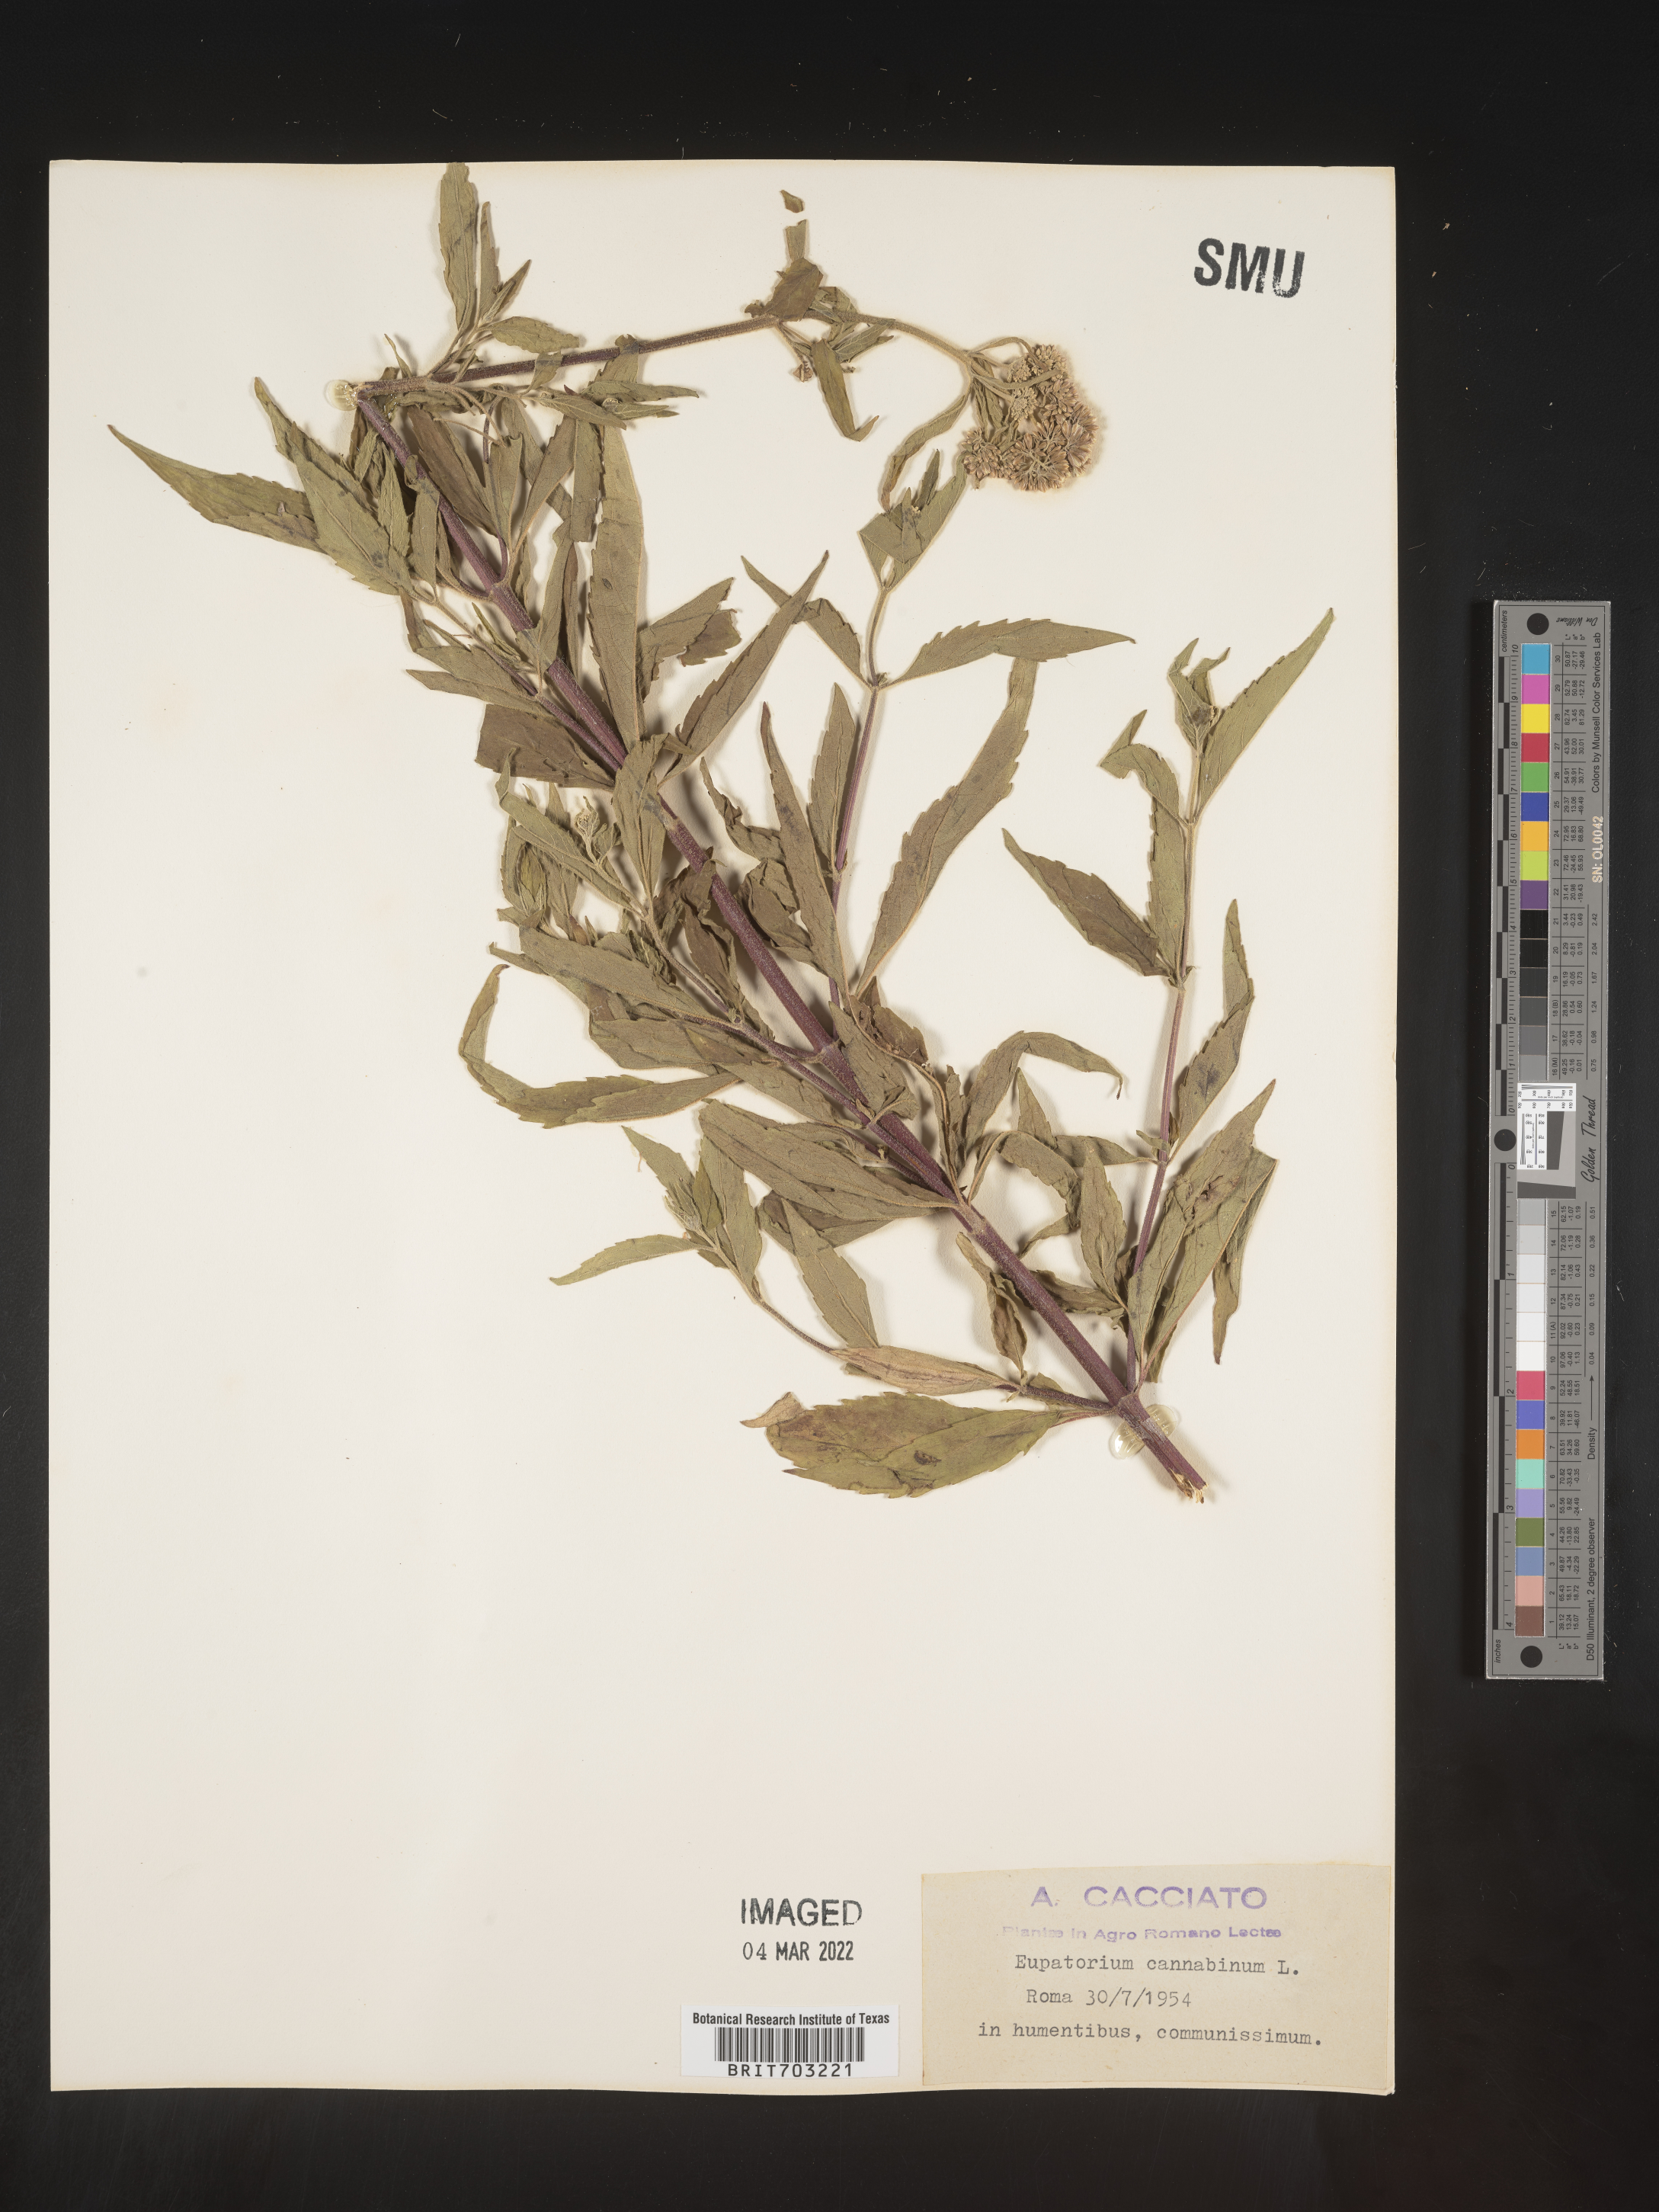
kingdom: Plantae
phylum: Tracheophyta
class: Magnoliopsida
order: Asterales
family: Asteraceae
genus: Eupatorium
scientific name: Eupatorium
